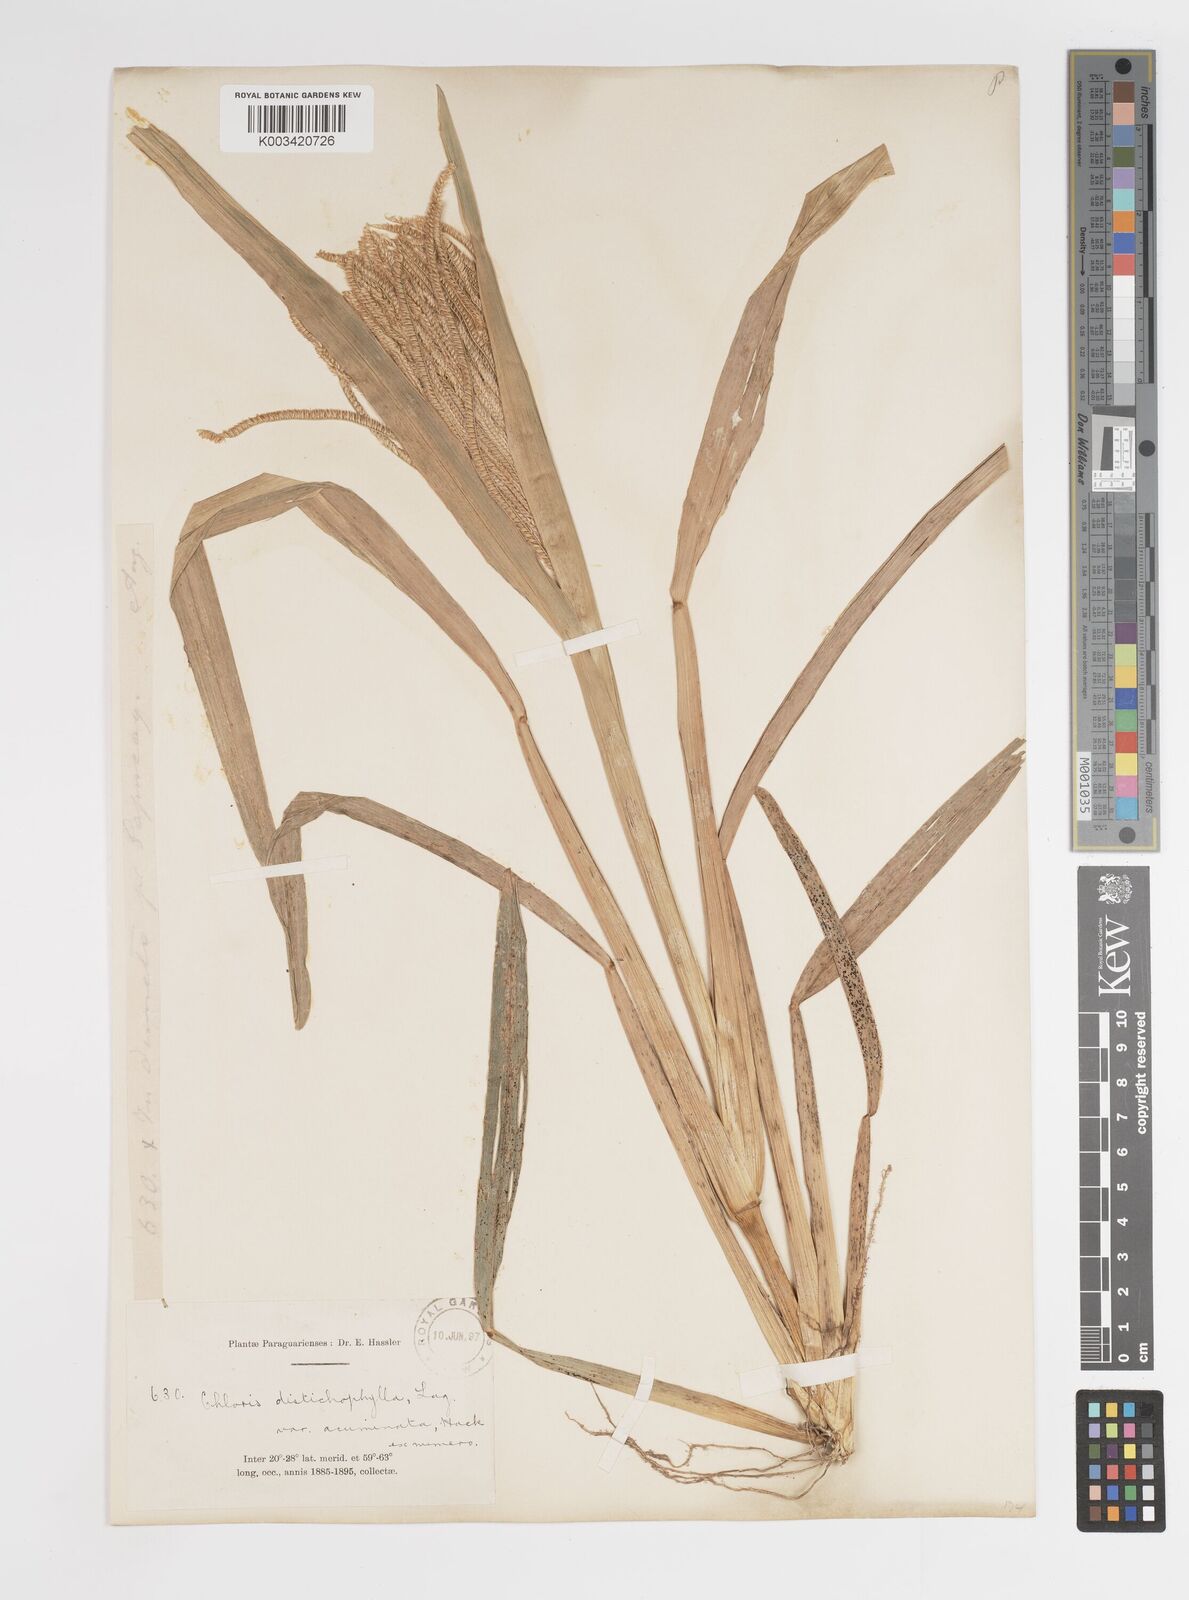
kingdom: Plantae
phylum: Tracheophyta
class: Liliopsida
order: Poales
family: Poaceae
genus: Eustachys
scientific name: Eustachys distichophylla
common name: Weeping fingergrass
